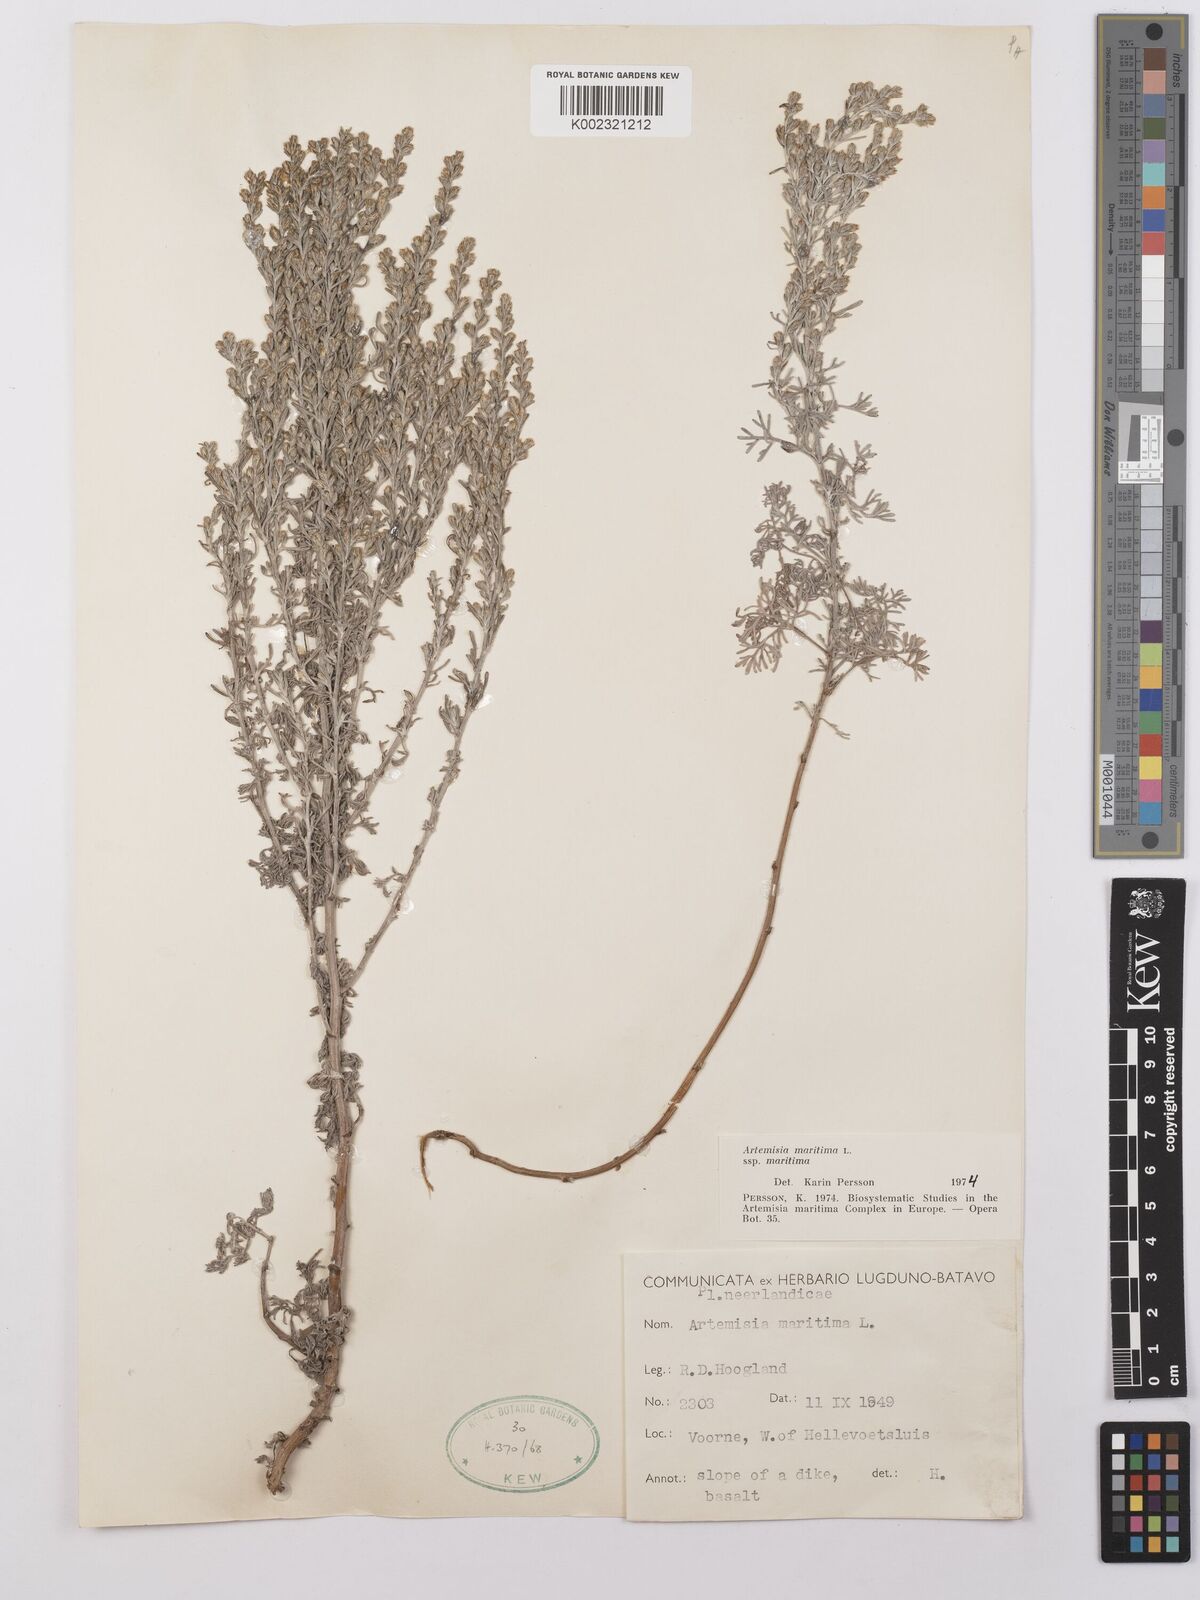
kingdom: Plantae
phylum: Tracheophyta
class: Magnoliopsida
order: Asterales
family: Asteraceae
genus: Artemisia
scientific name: Artemisia maritima
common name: Wormseed
